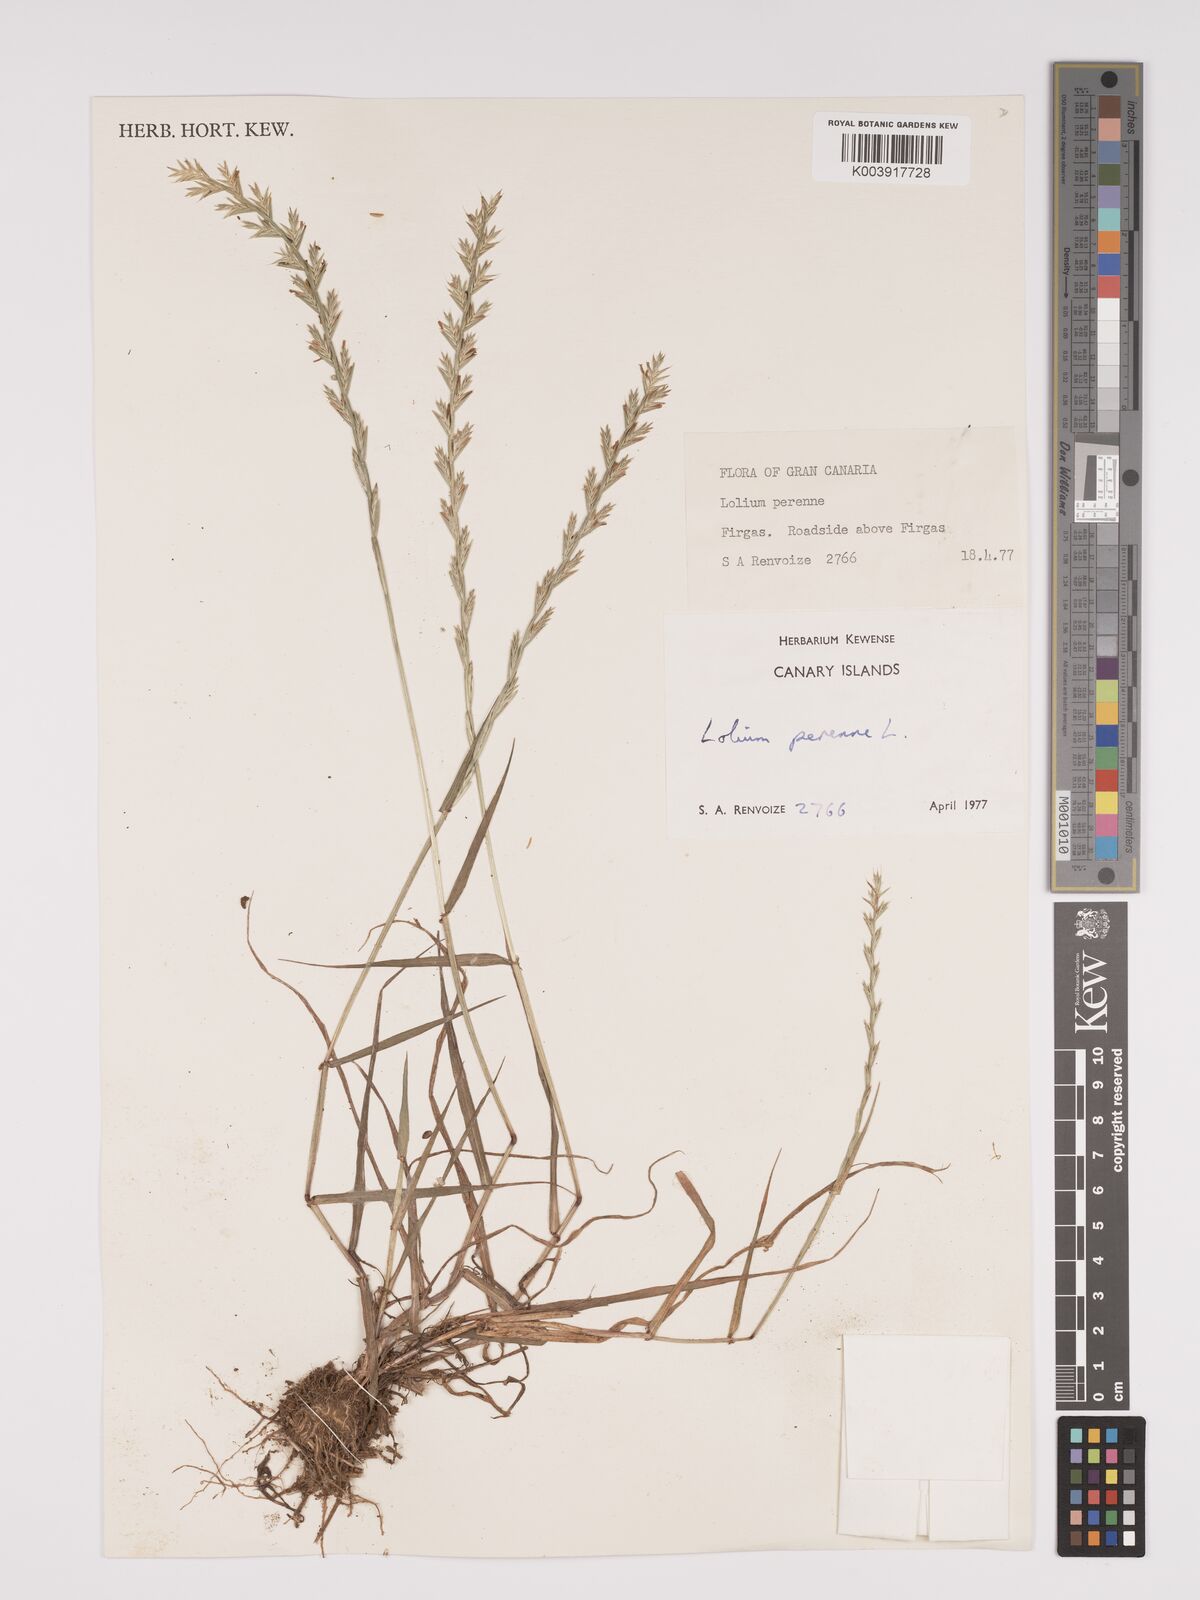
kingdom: Plantae
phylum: Tracheophyta
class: Liliopsida
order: Poales
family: Poaceae
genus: Lolium
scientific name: Lolium perenne
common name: Perennial ryegrass
